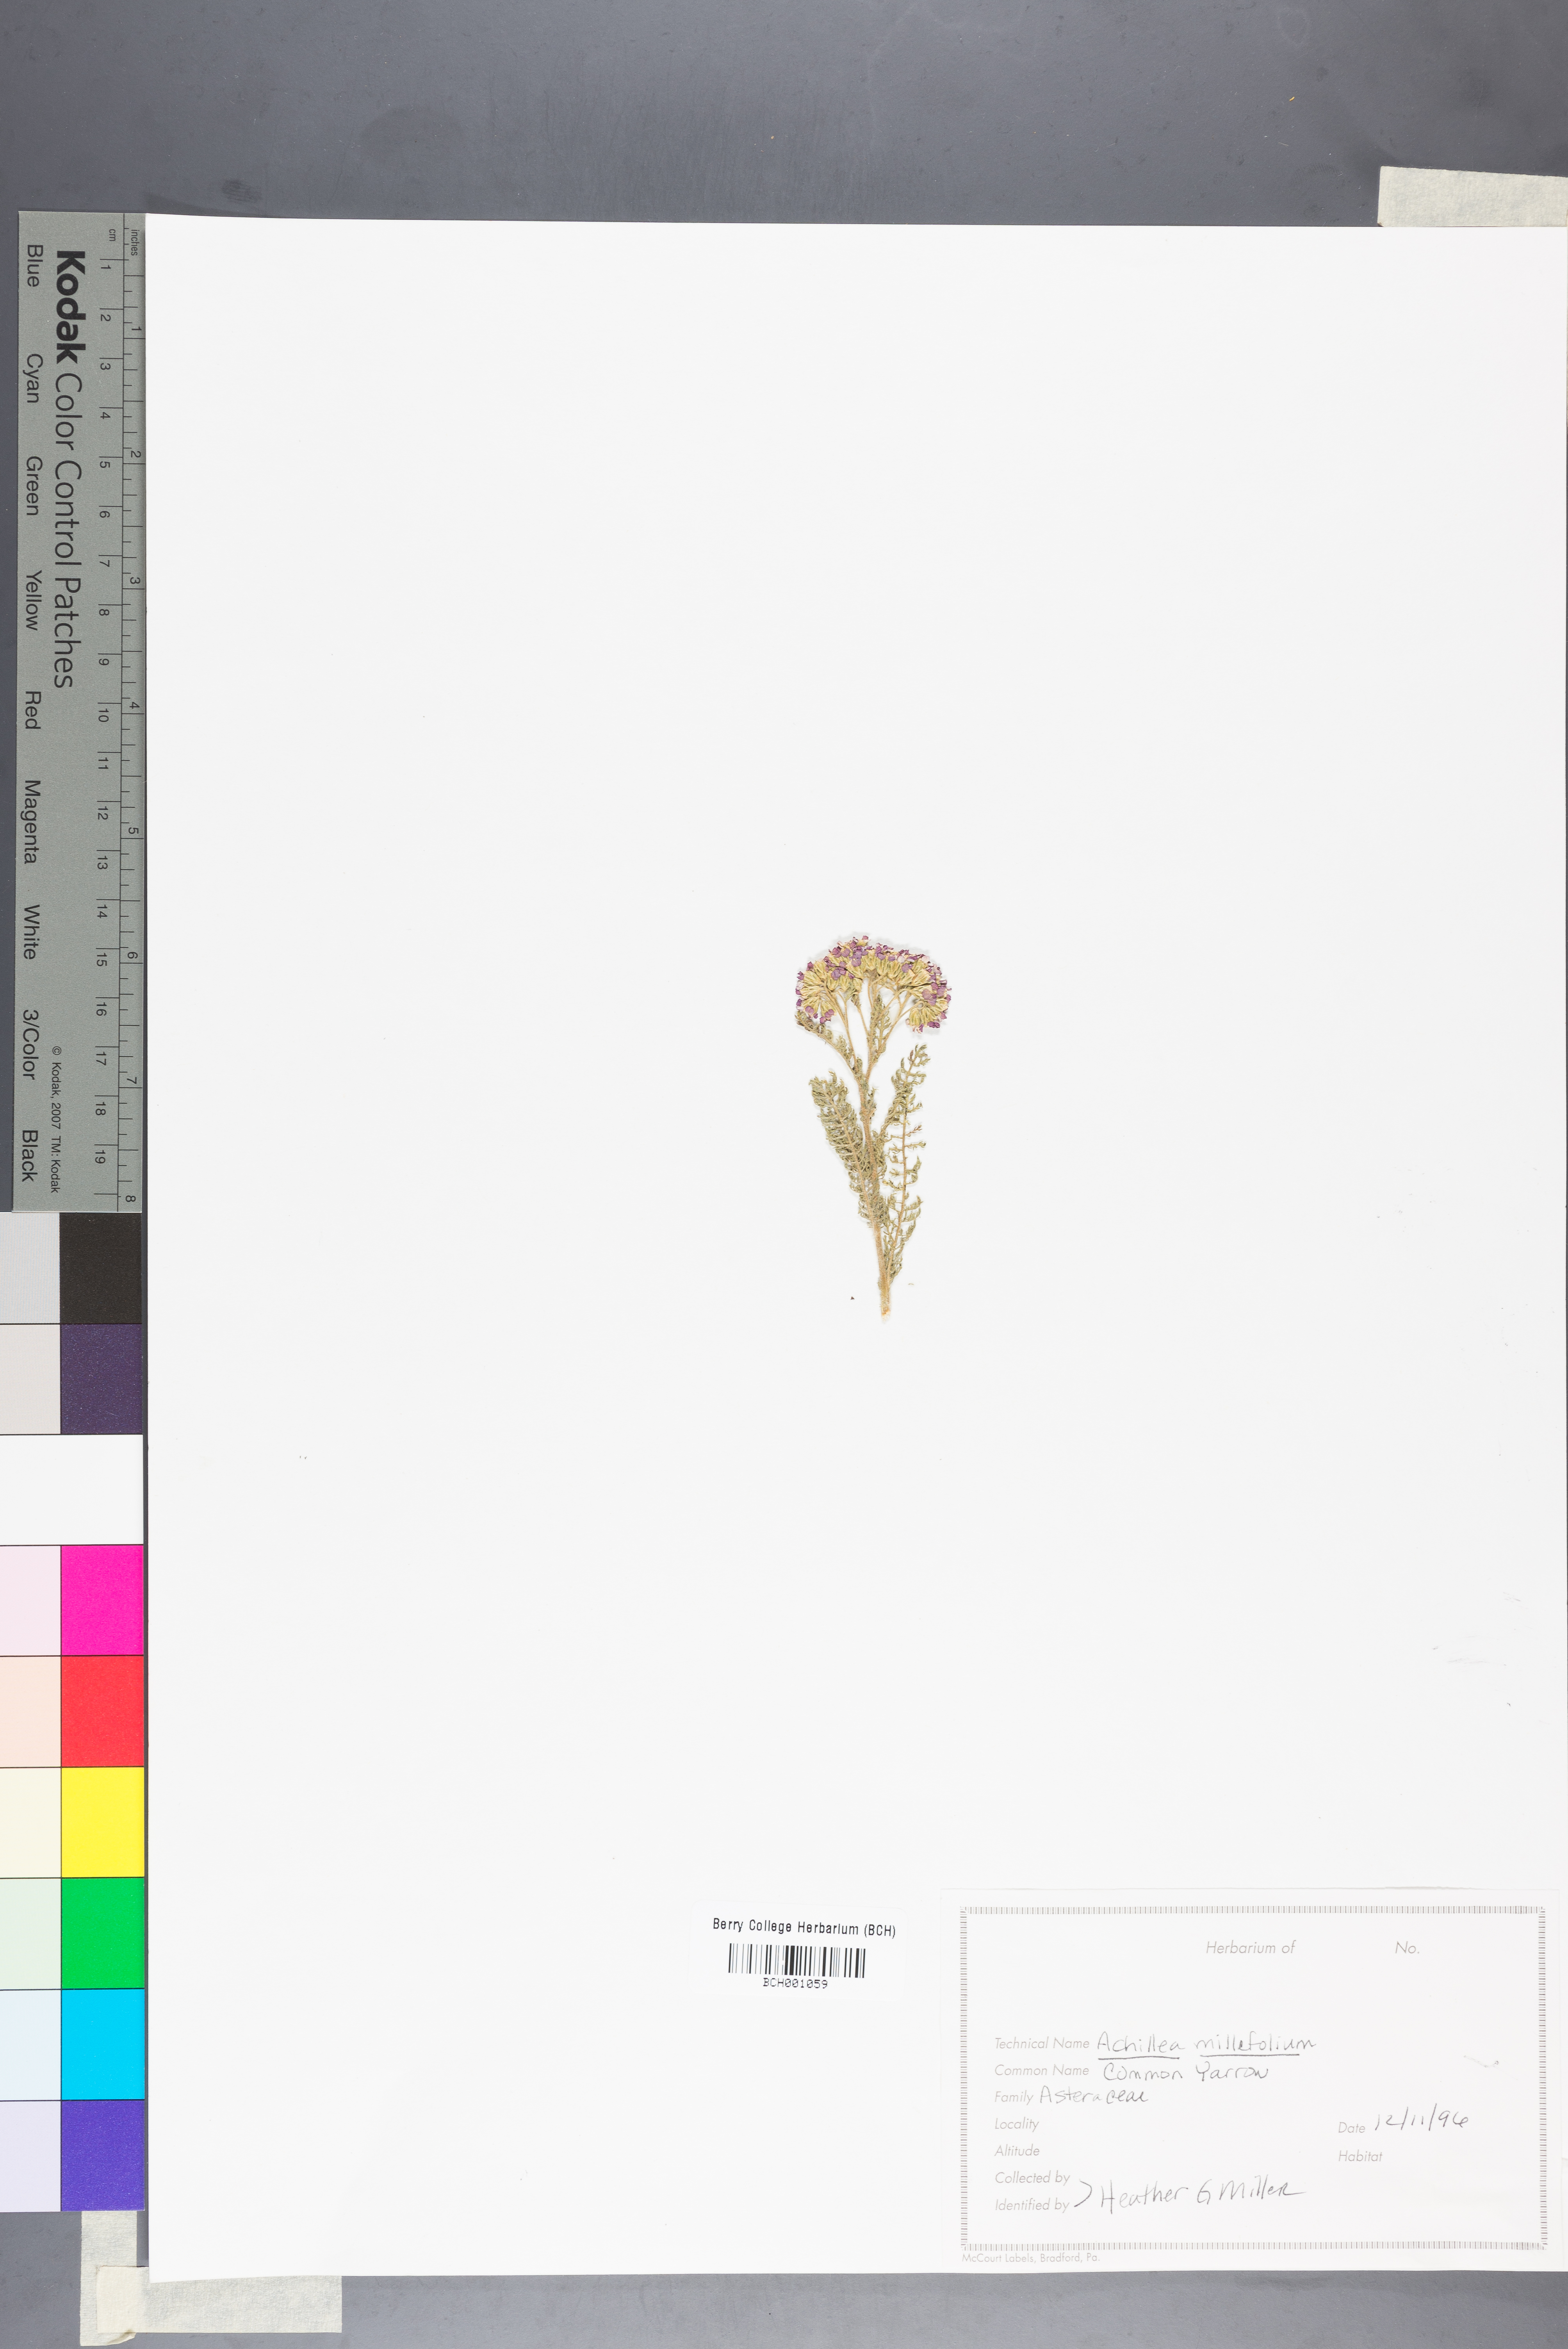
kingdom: Plantae
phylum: Tracheophyta
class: Magnoliopsida
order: Asterales
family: Asteraceae
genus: Achillea
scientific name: Achillea millefolium
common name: Yarrow
